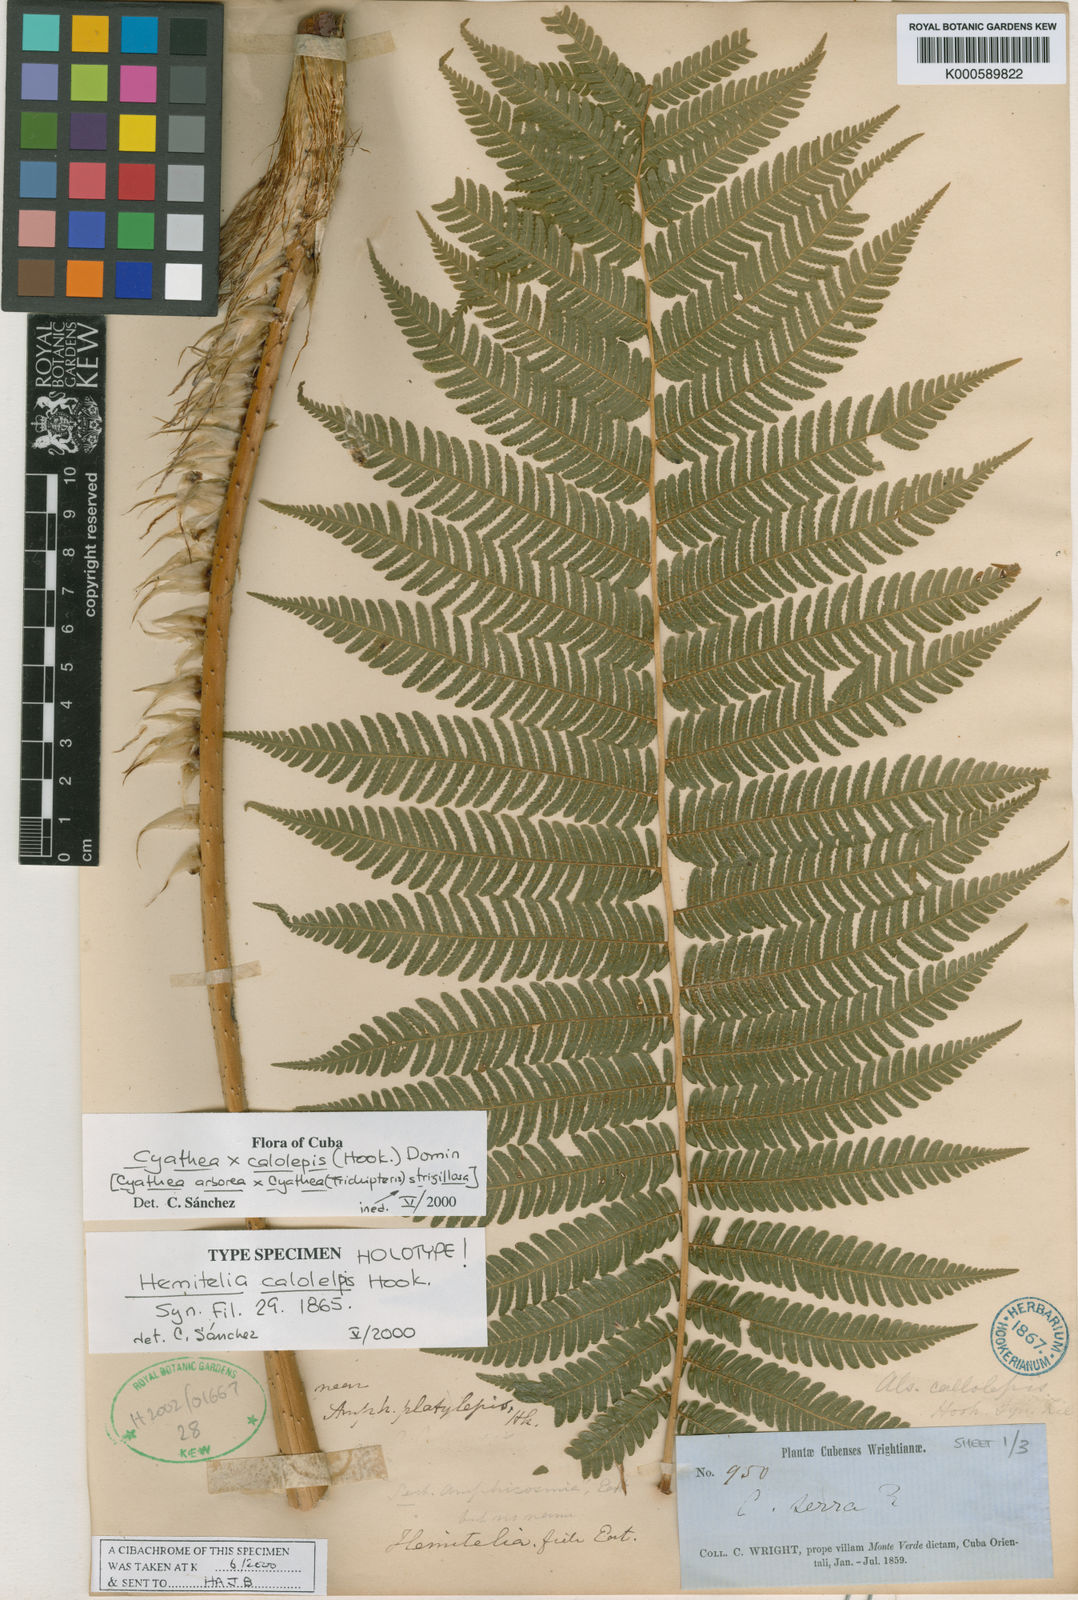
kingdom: Plantae
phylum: Tracheophyta
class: Polypodiopsida
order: Cyatheales
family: Cyatheaceae
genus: Cyathea
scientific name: Cyathea calolepis
